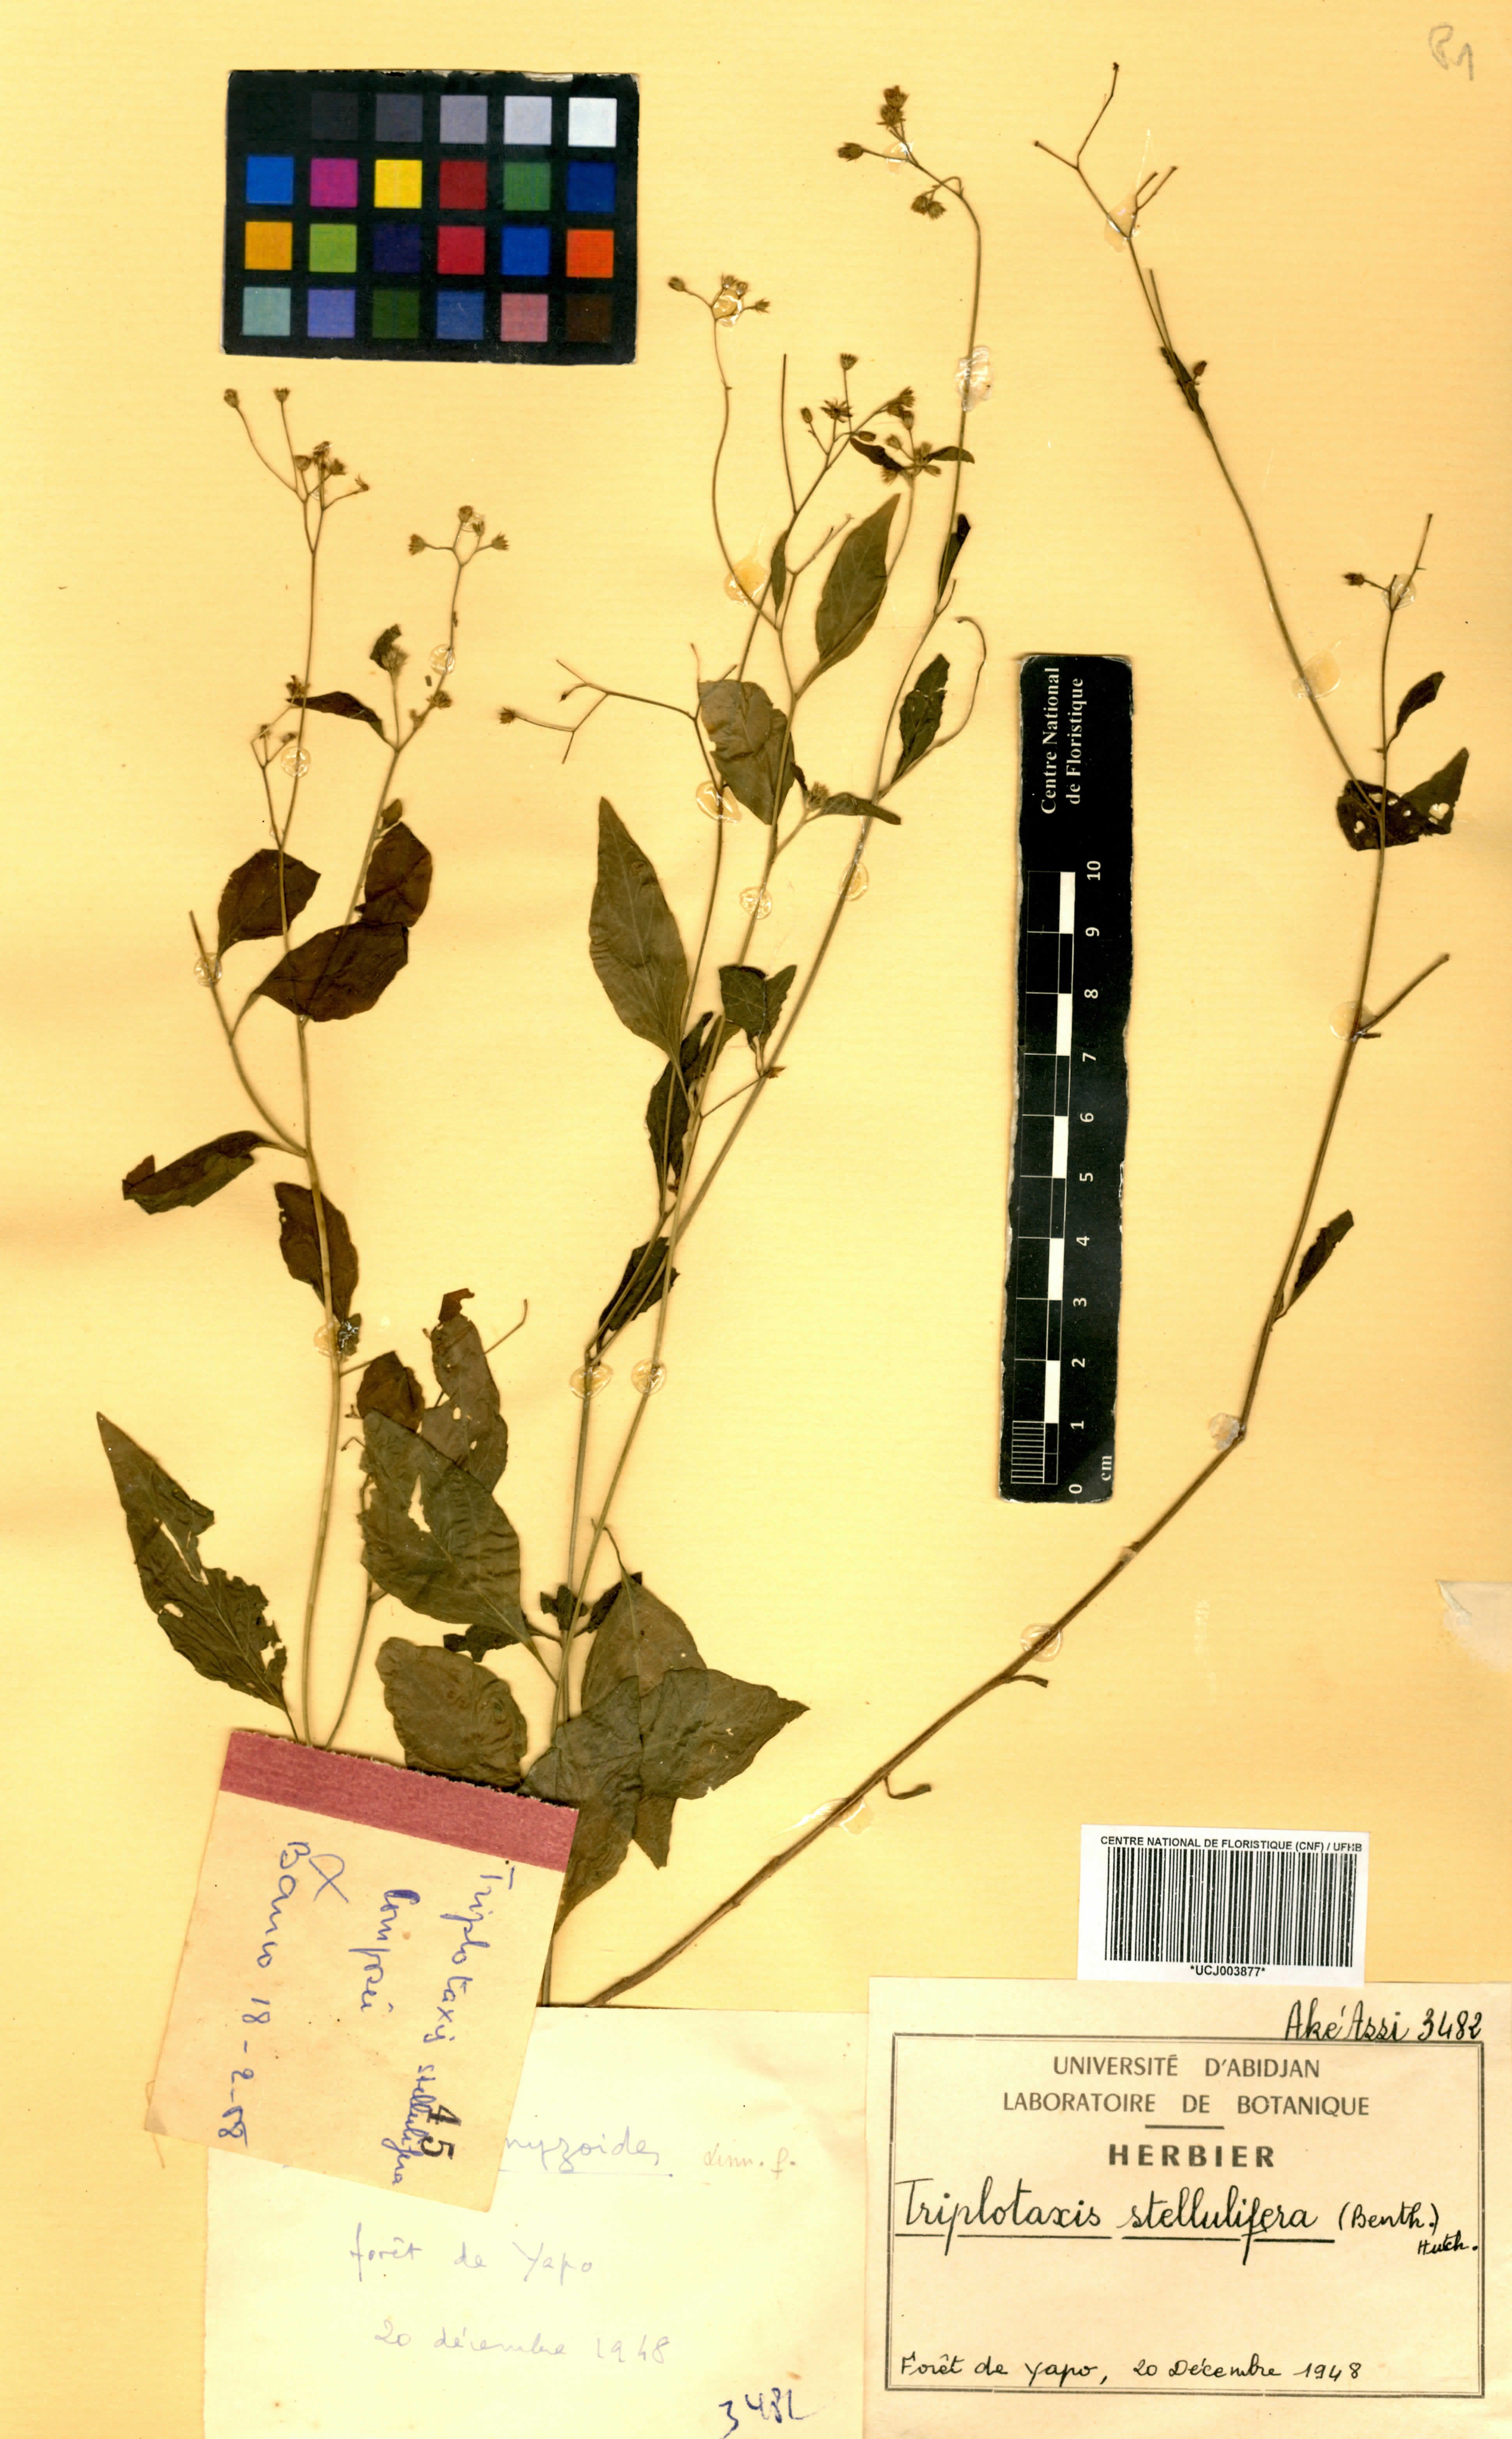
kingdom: Plantae
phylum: Tracheophyta
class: Magnoliopsida
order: Asterales
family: Asteraceae
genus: Cyanthillium
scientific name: Cyanthillium stelluliferum
